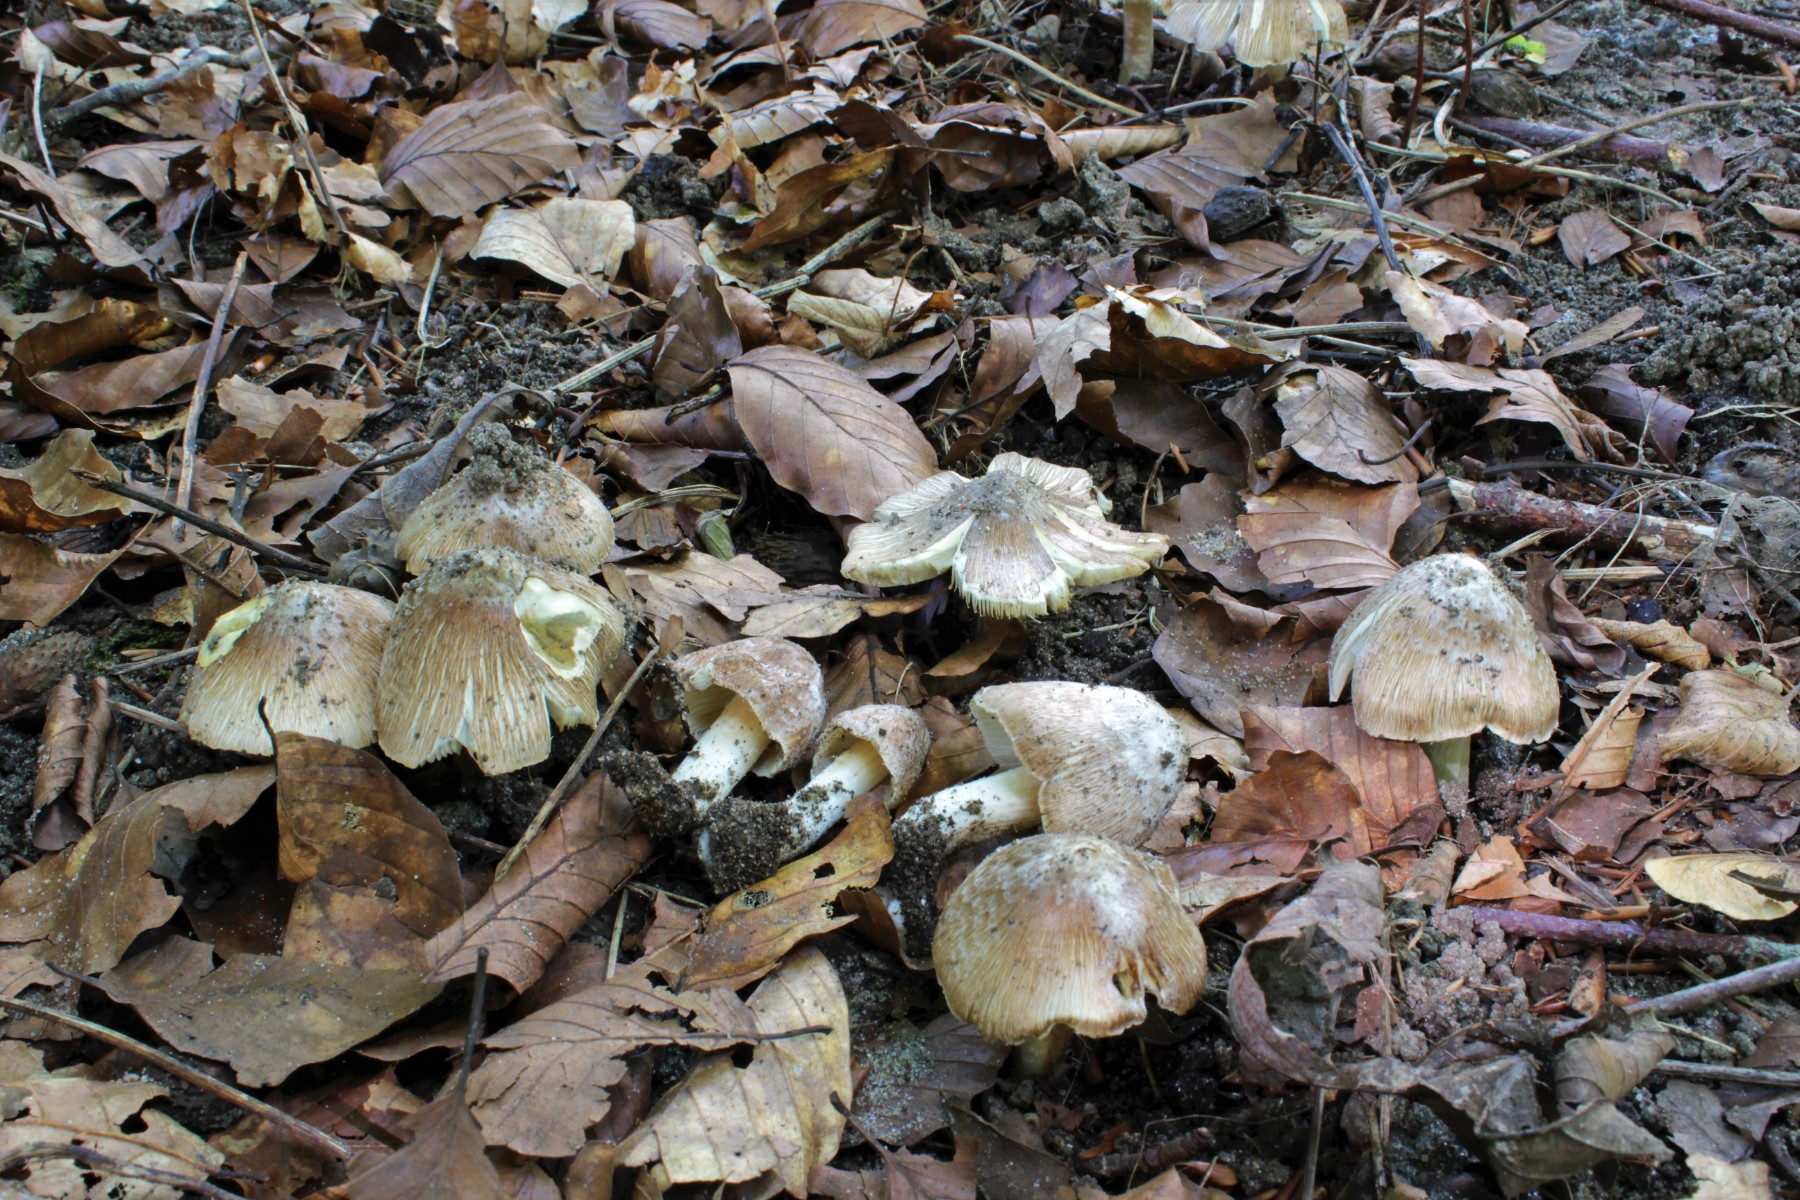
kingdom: Fungi
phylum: Basidiomycota
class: Agaricomycetes
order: Agaricales
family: Inocybaceae
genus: Inosperma
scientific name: Inosperma
